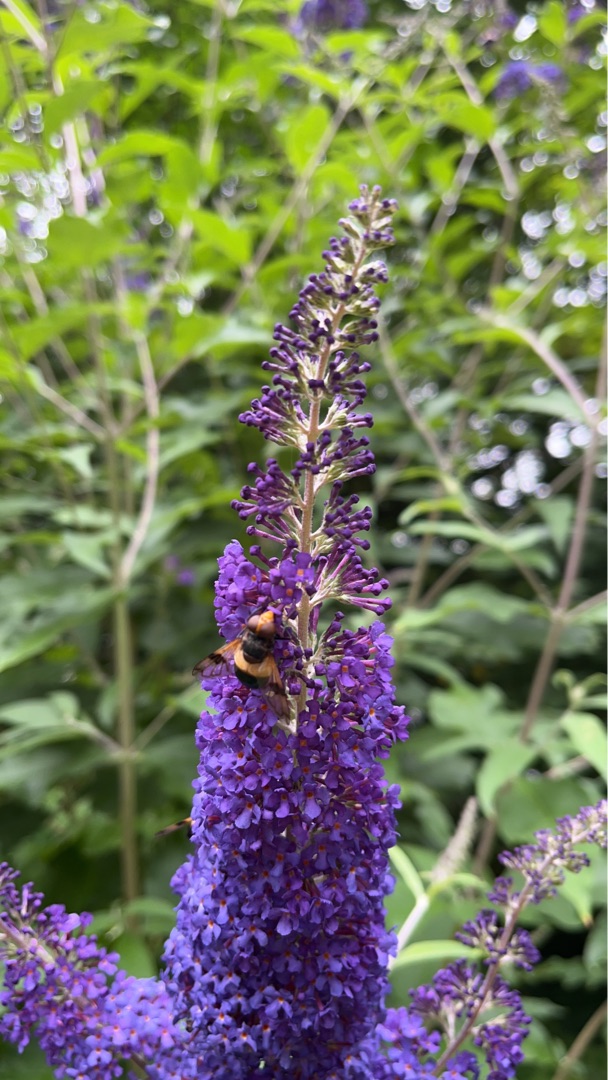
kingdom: Animalia
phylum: Arthropoda
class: Insecta
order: Diptera
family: Syrphidae
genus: Volucella
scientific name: Volucella pellucens
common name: Hvidbåndet humlesvirreflue
